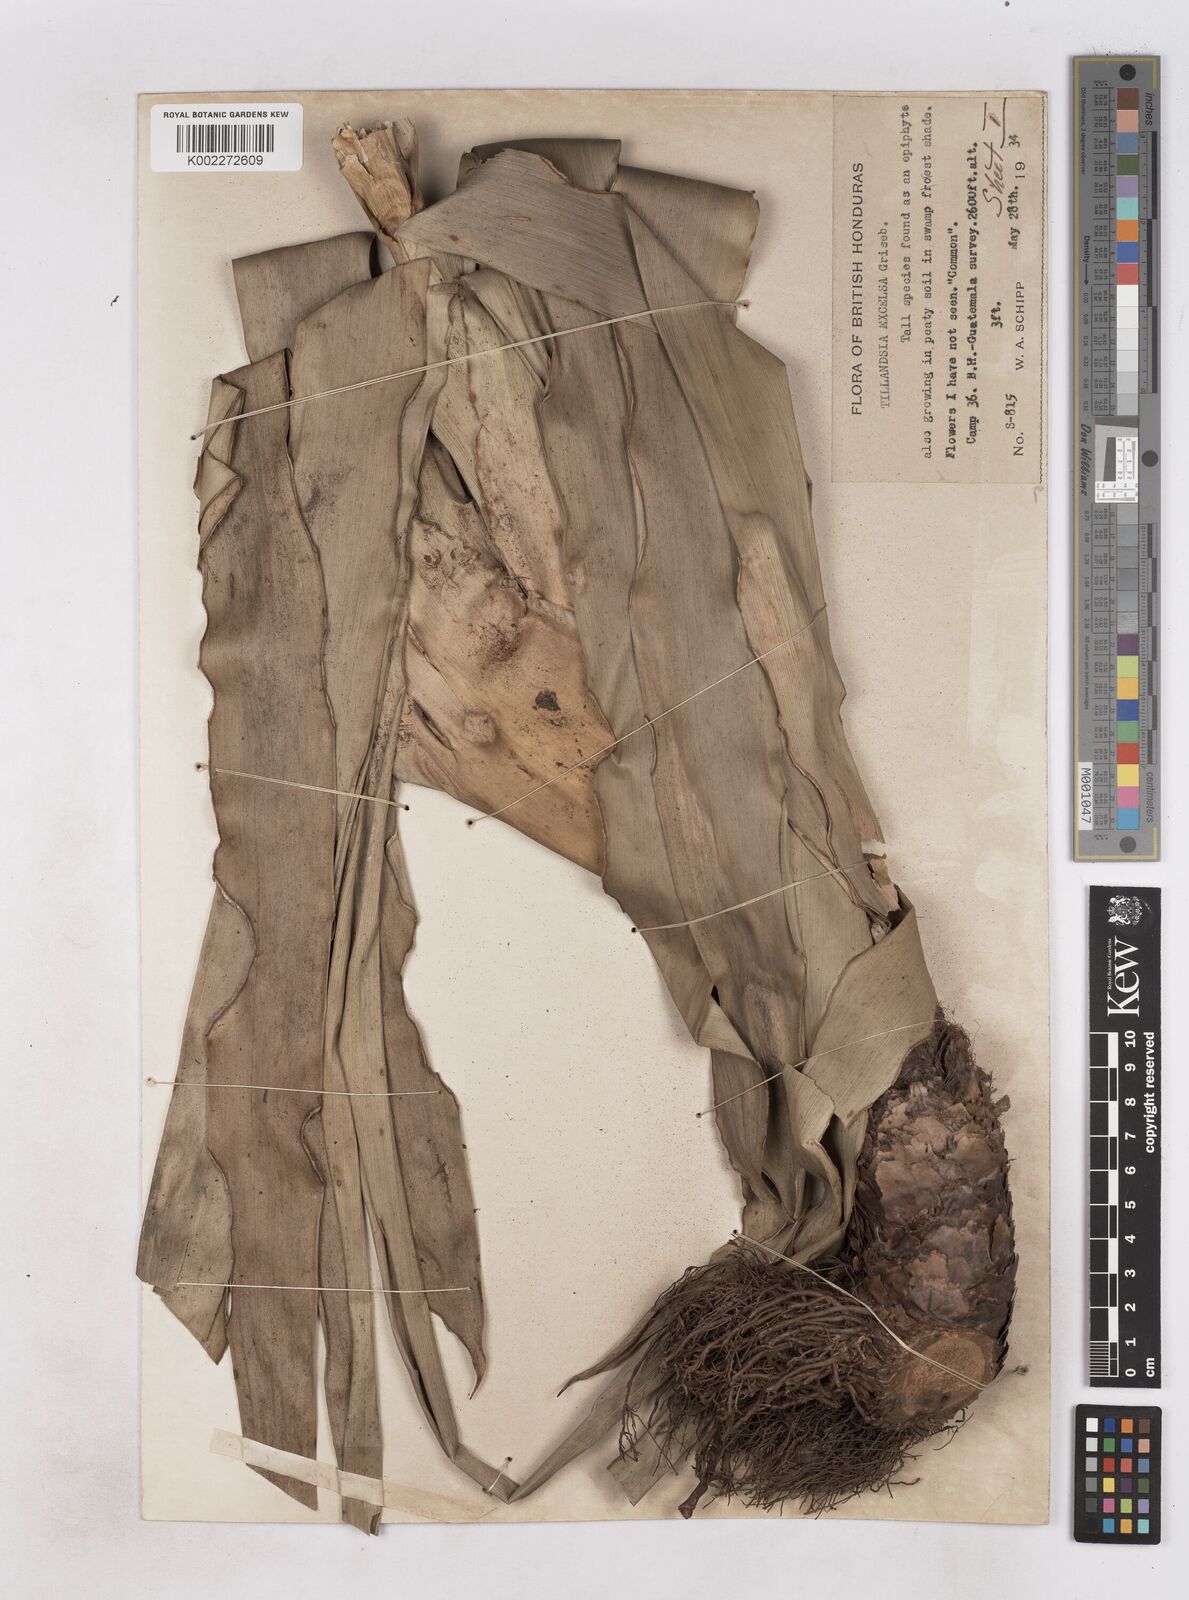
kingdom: Plantae
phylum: Tracheophyta
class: Liliopsida
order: Poales
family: Bromeliaceae
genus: Tillandsia
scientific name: Tillandsia excelsa
